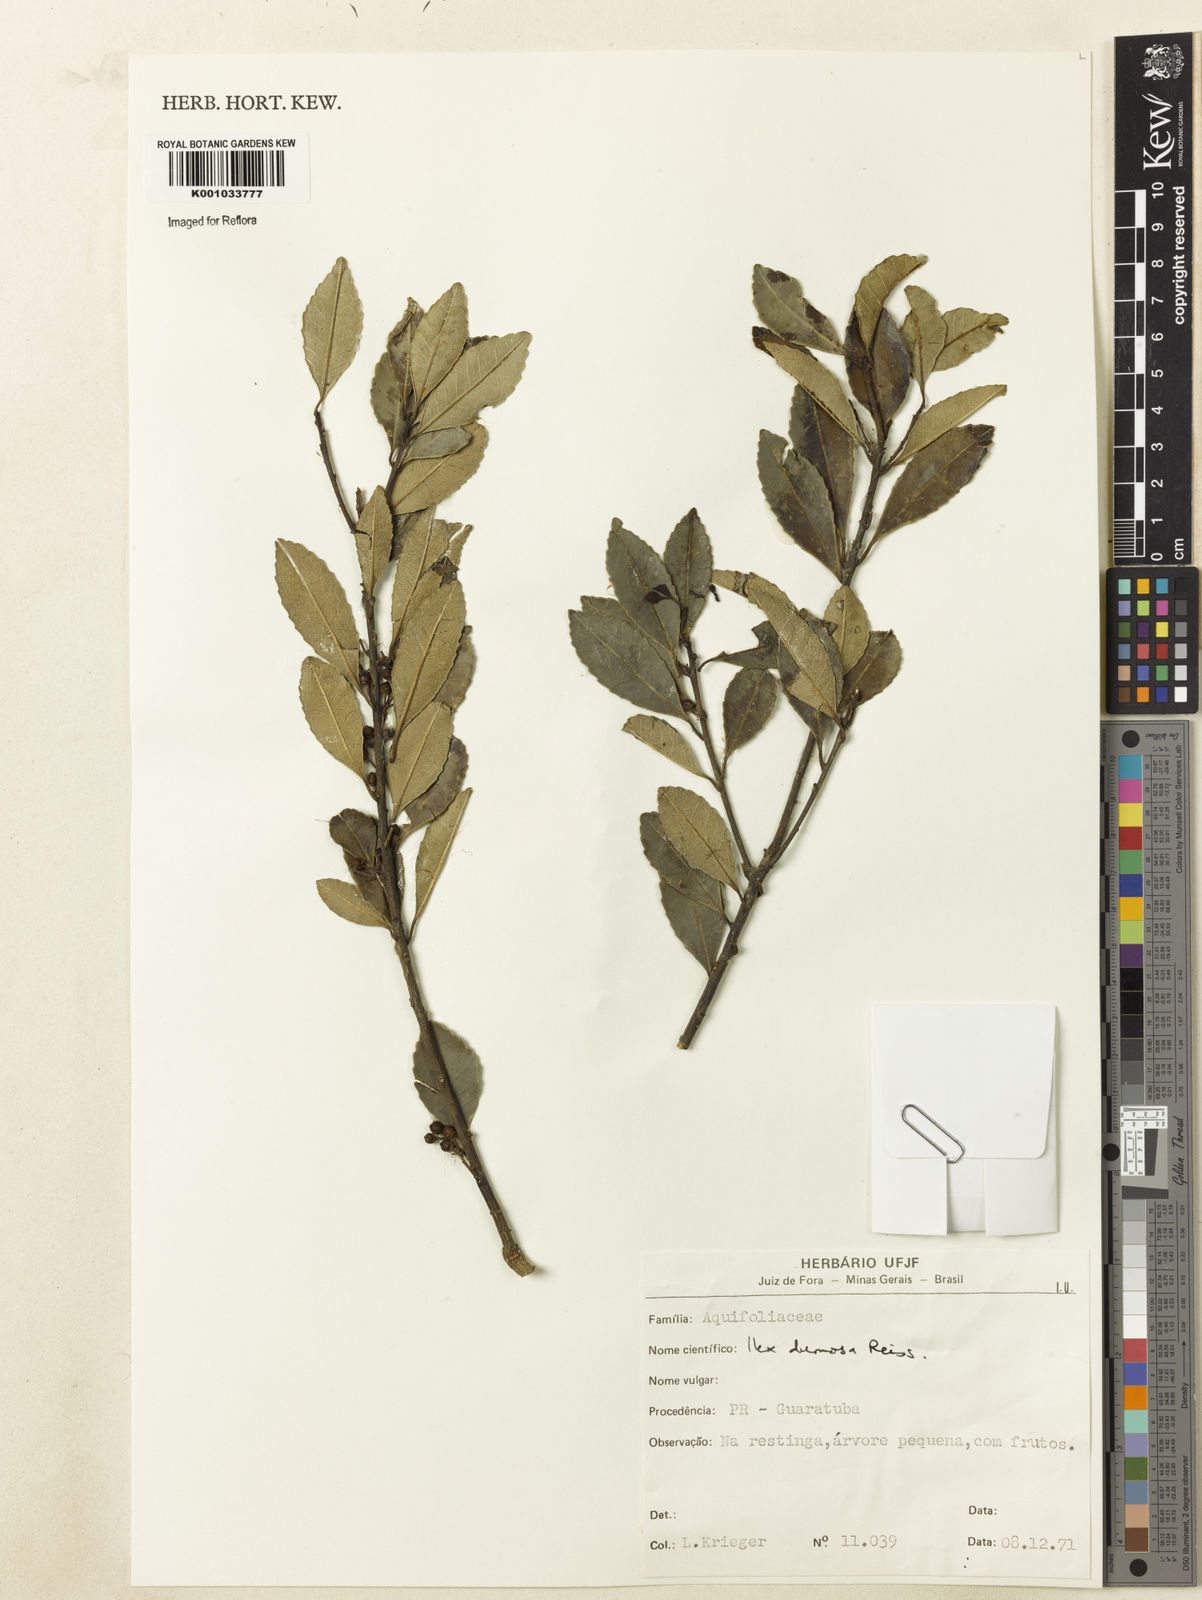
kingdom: Plantae
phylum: Tracheophyta
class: Magnoliopsida
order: Aquifoliales
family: Aquifoliaceae
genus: Ilex
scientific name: Ilex dumosa
